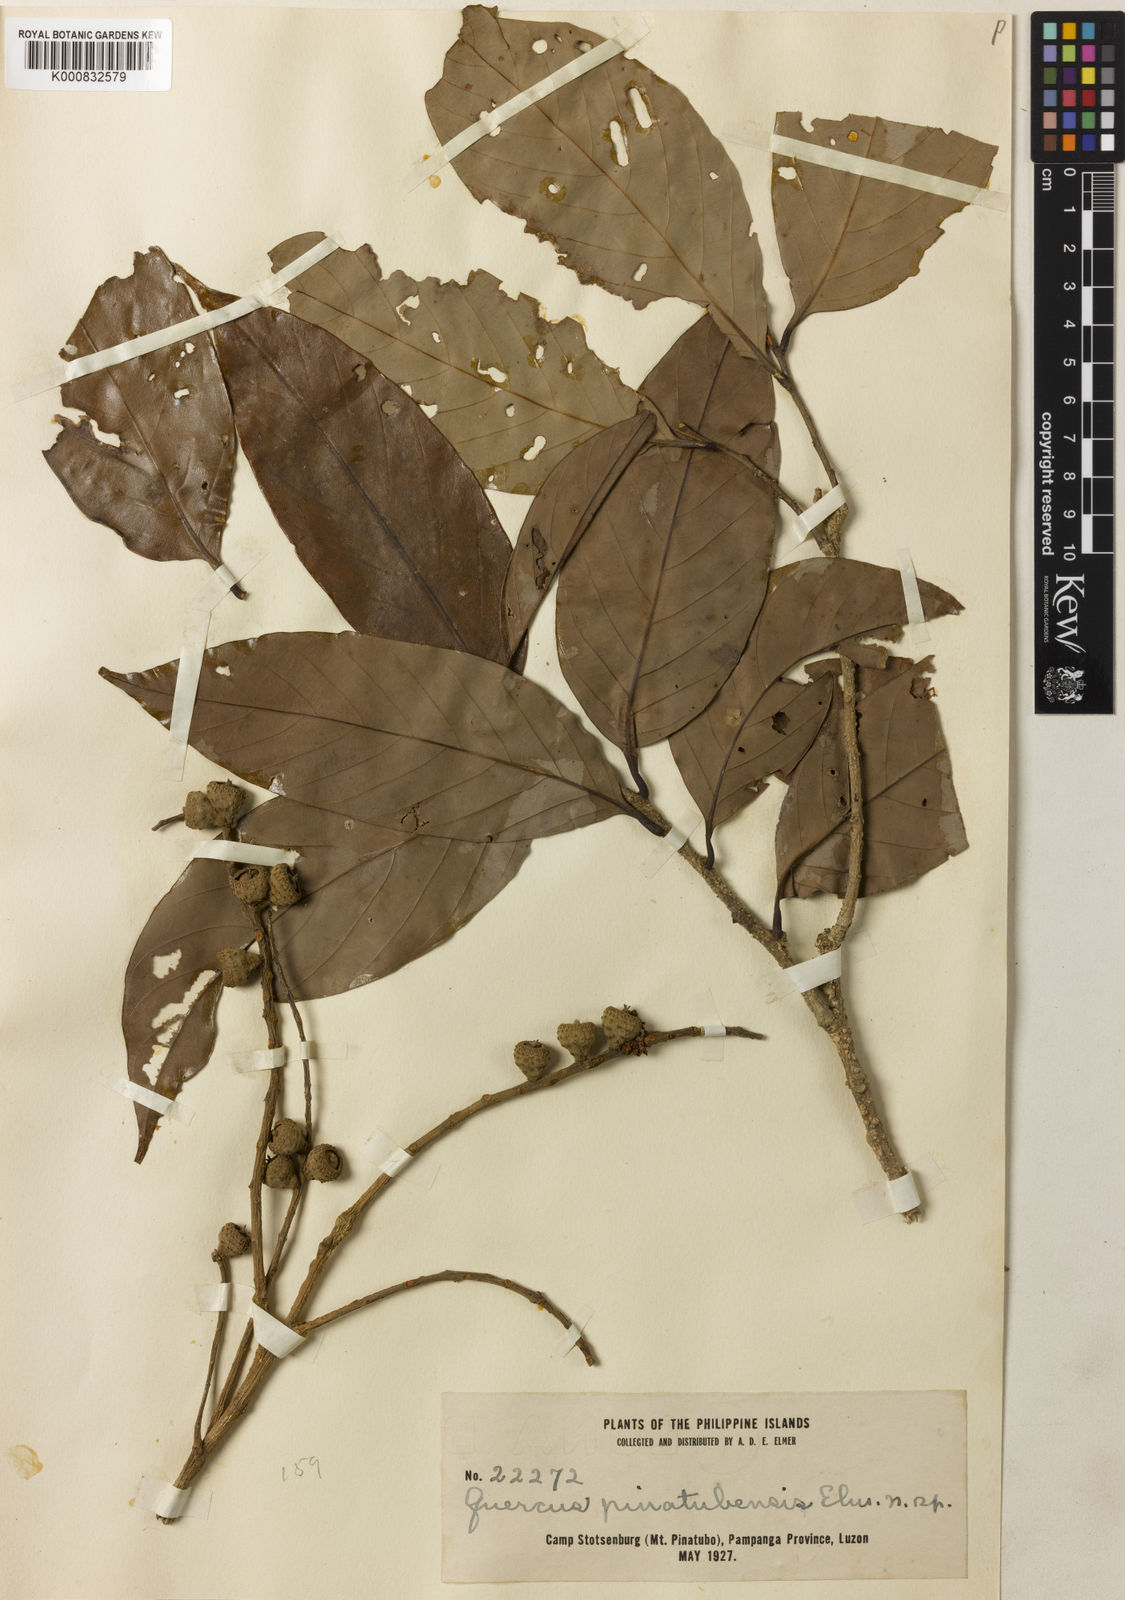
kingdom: Plantae
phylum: Tracheophyta
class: Magnoliopsida
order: Fagales
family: Fagaceae
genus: Lithocarpus
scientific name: Lithocarpus castellarnauianus
